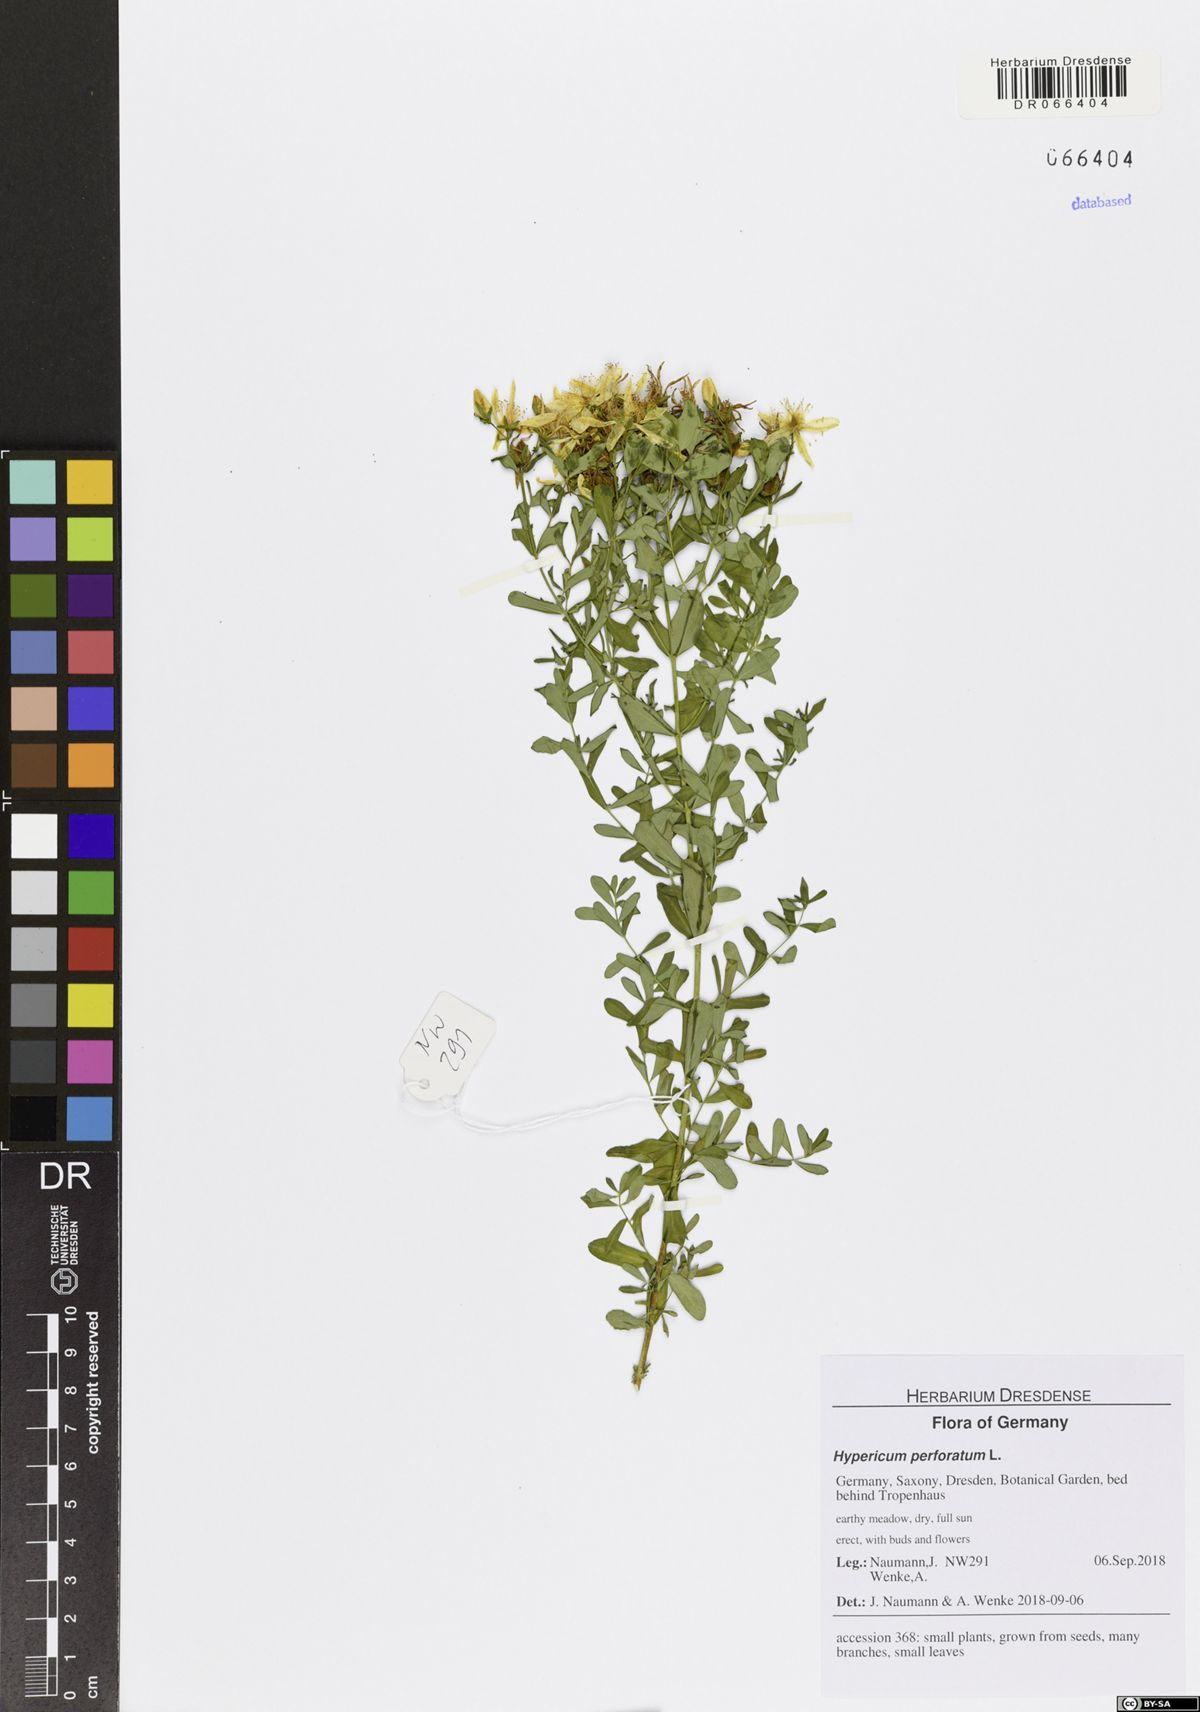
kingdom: Plantae
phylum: Tracheophyta
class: Magnoliopsida
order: Malpighiales
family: Hypericaceae
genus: Hypericum
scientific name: Hypericum perforatum
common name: Common st. johnswort
